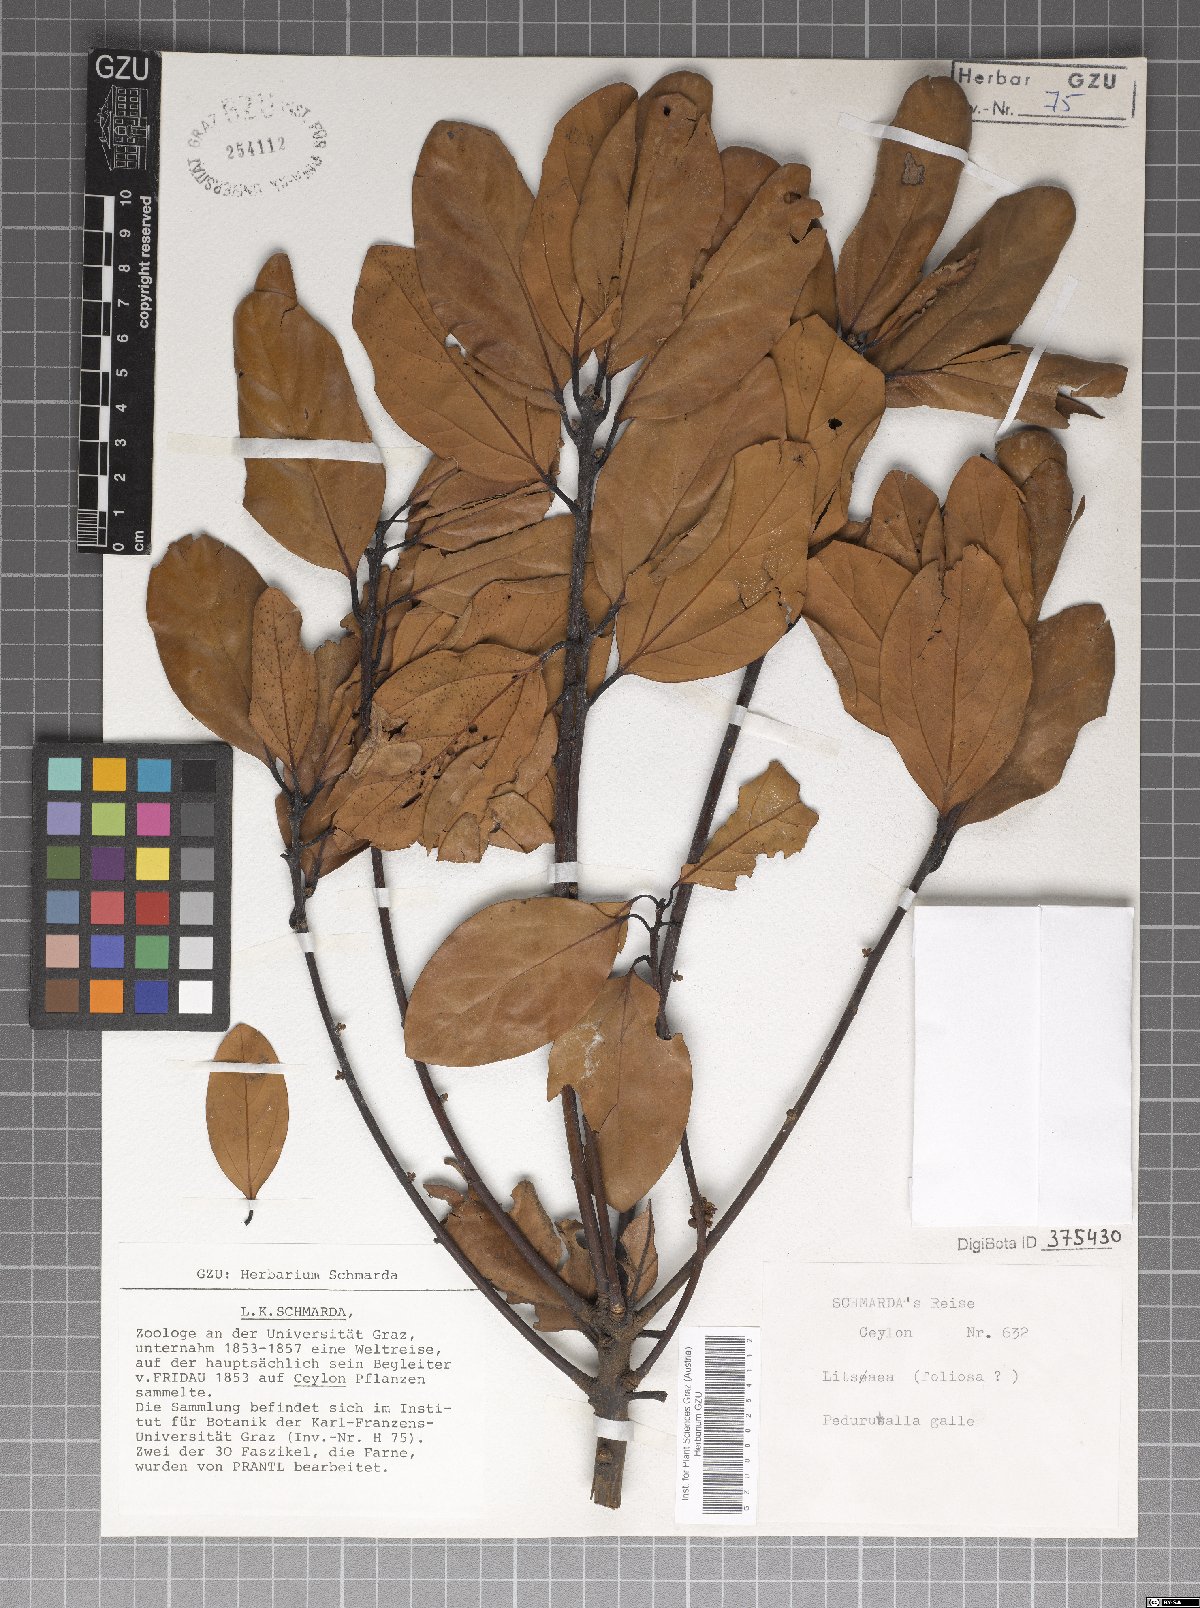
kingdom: Plantae
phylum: Tracheophyta
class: Magnoliopsida
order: Laurales
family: Lauraceae
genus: Neolitsea
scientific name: Neolitsea umbrosa
